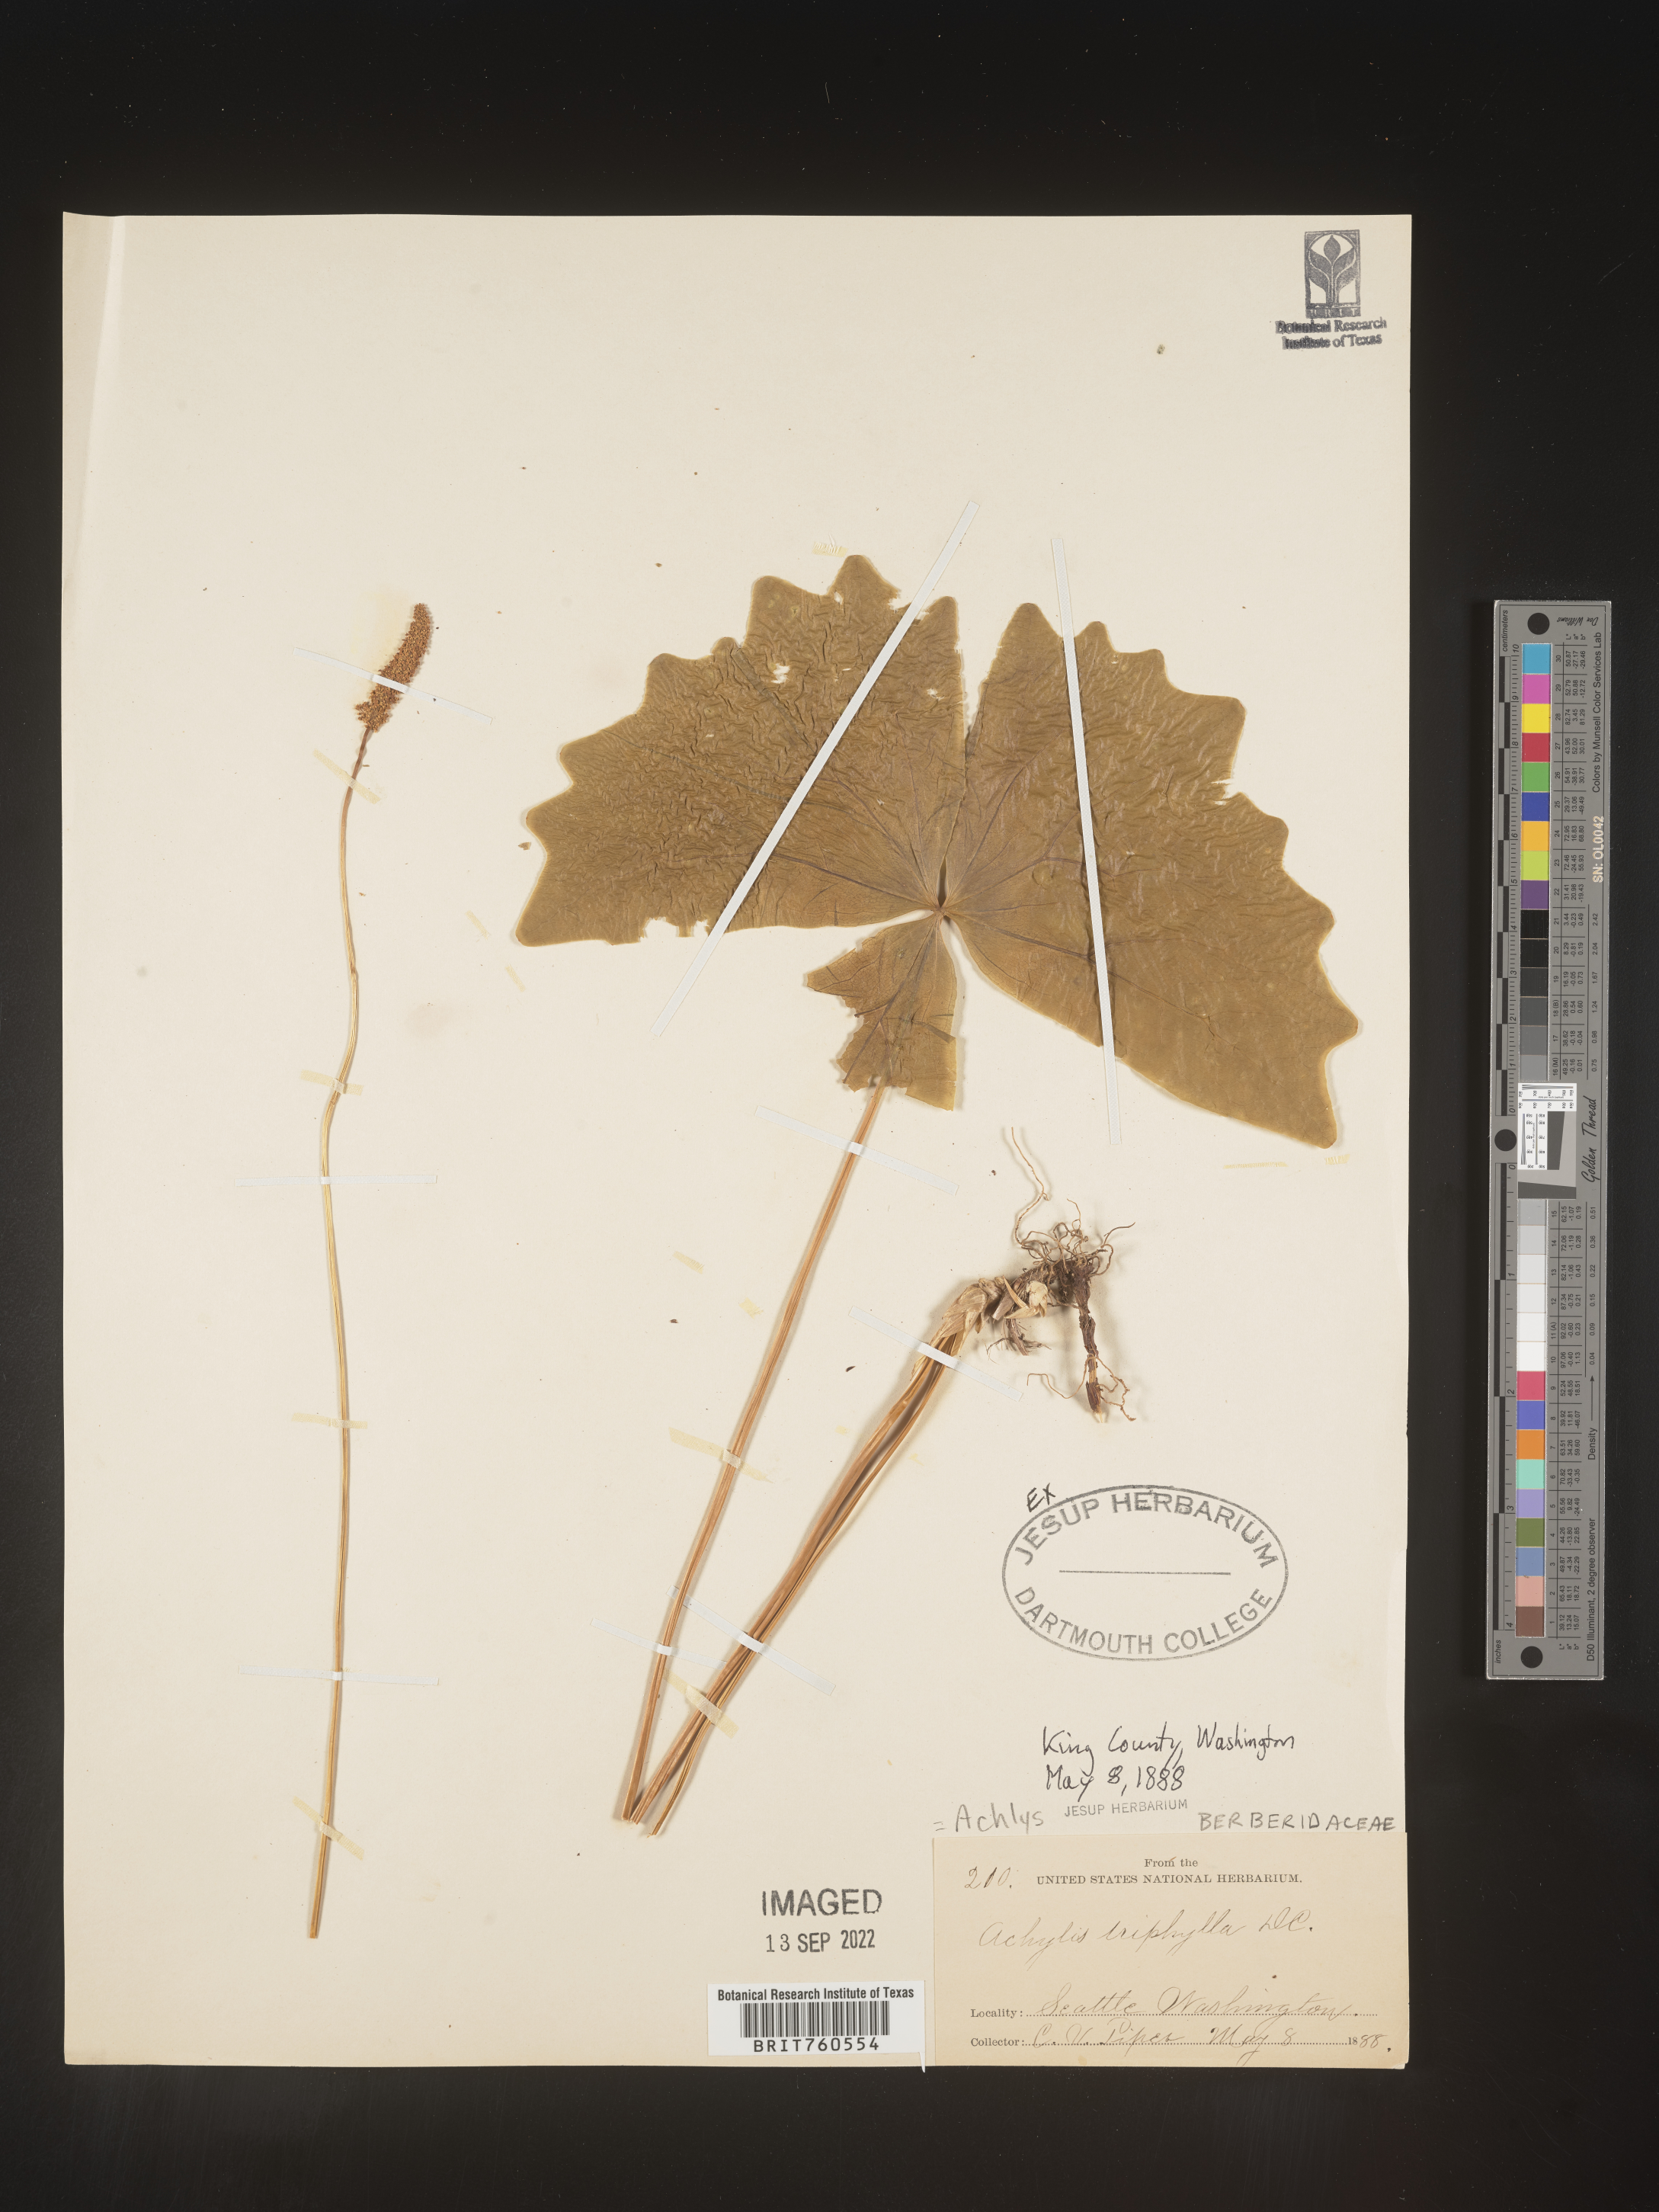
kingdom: Plantae
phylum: Tracheophyta
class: Magnoliopsida
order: Ranunculales
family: Berberidaceae
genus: Achlys
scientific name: Achlys
